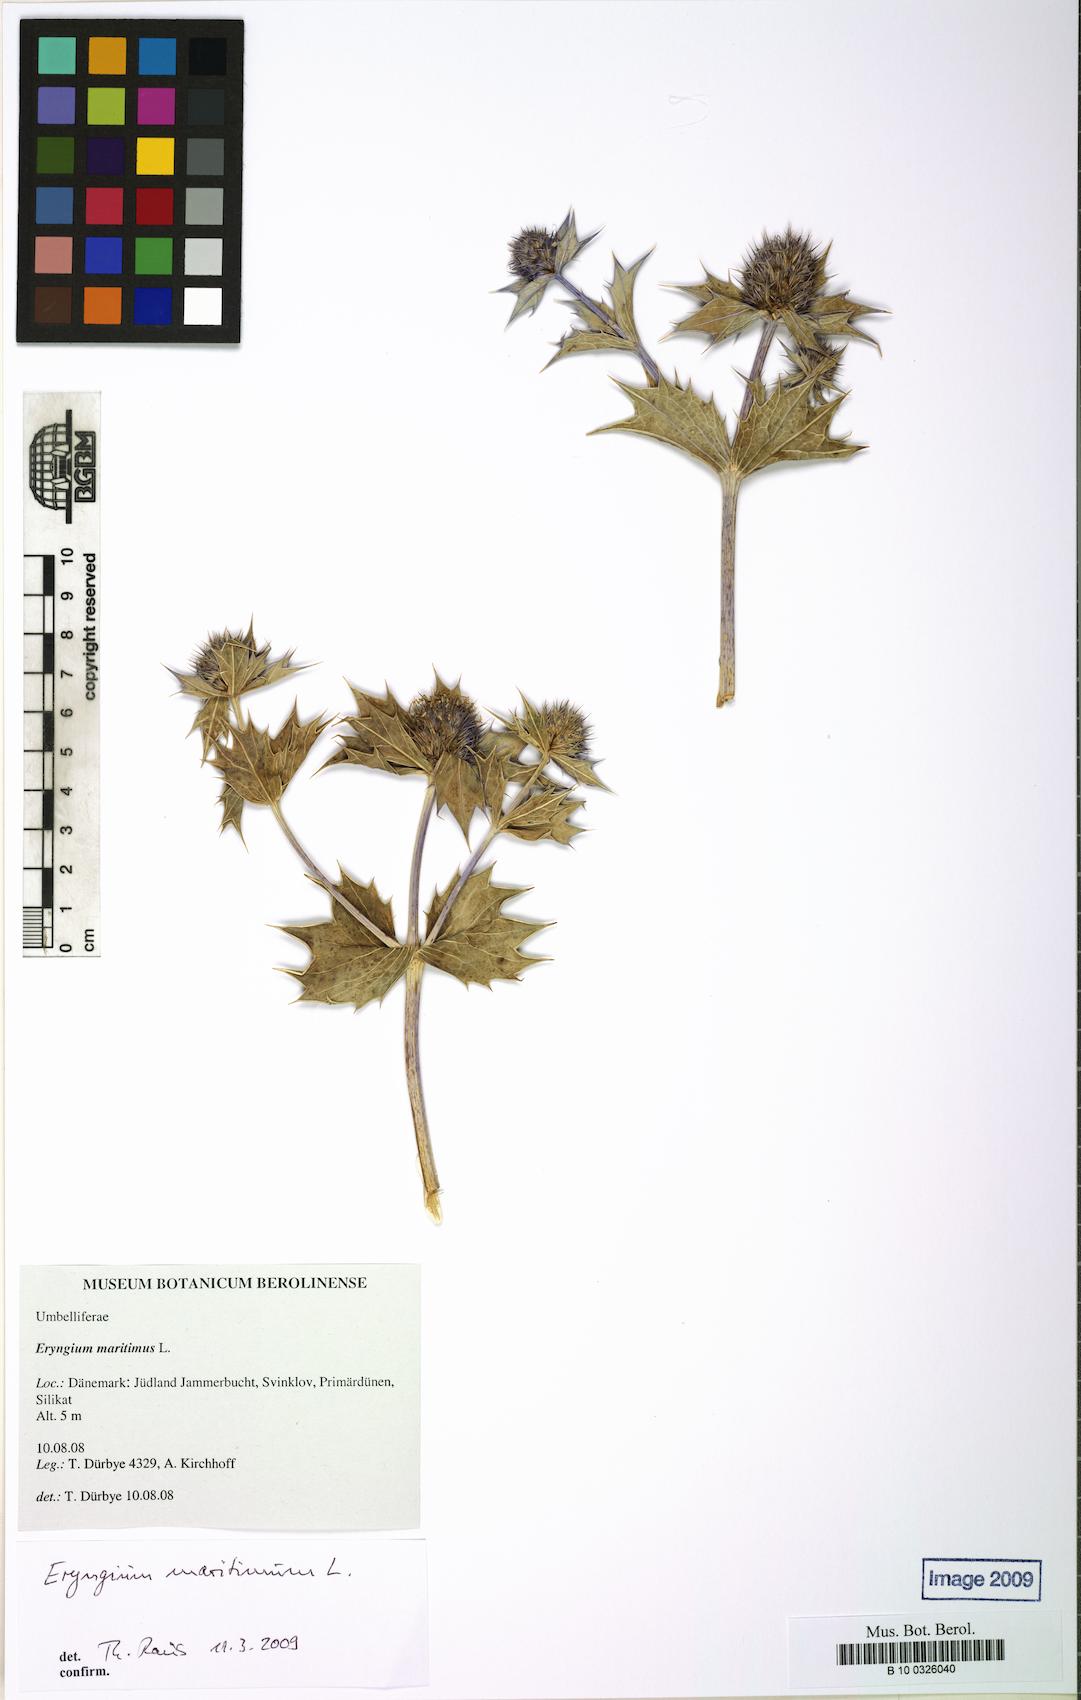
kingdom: Plantae
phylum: Tracheophyta
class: Magnoliopsida
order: Apiales
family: Apiaceae
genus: Eryngium
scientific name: Eryngium maritimum
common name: Sea-holly
